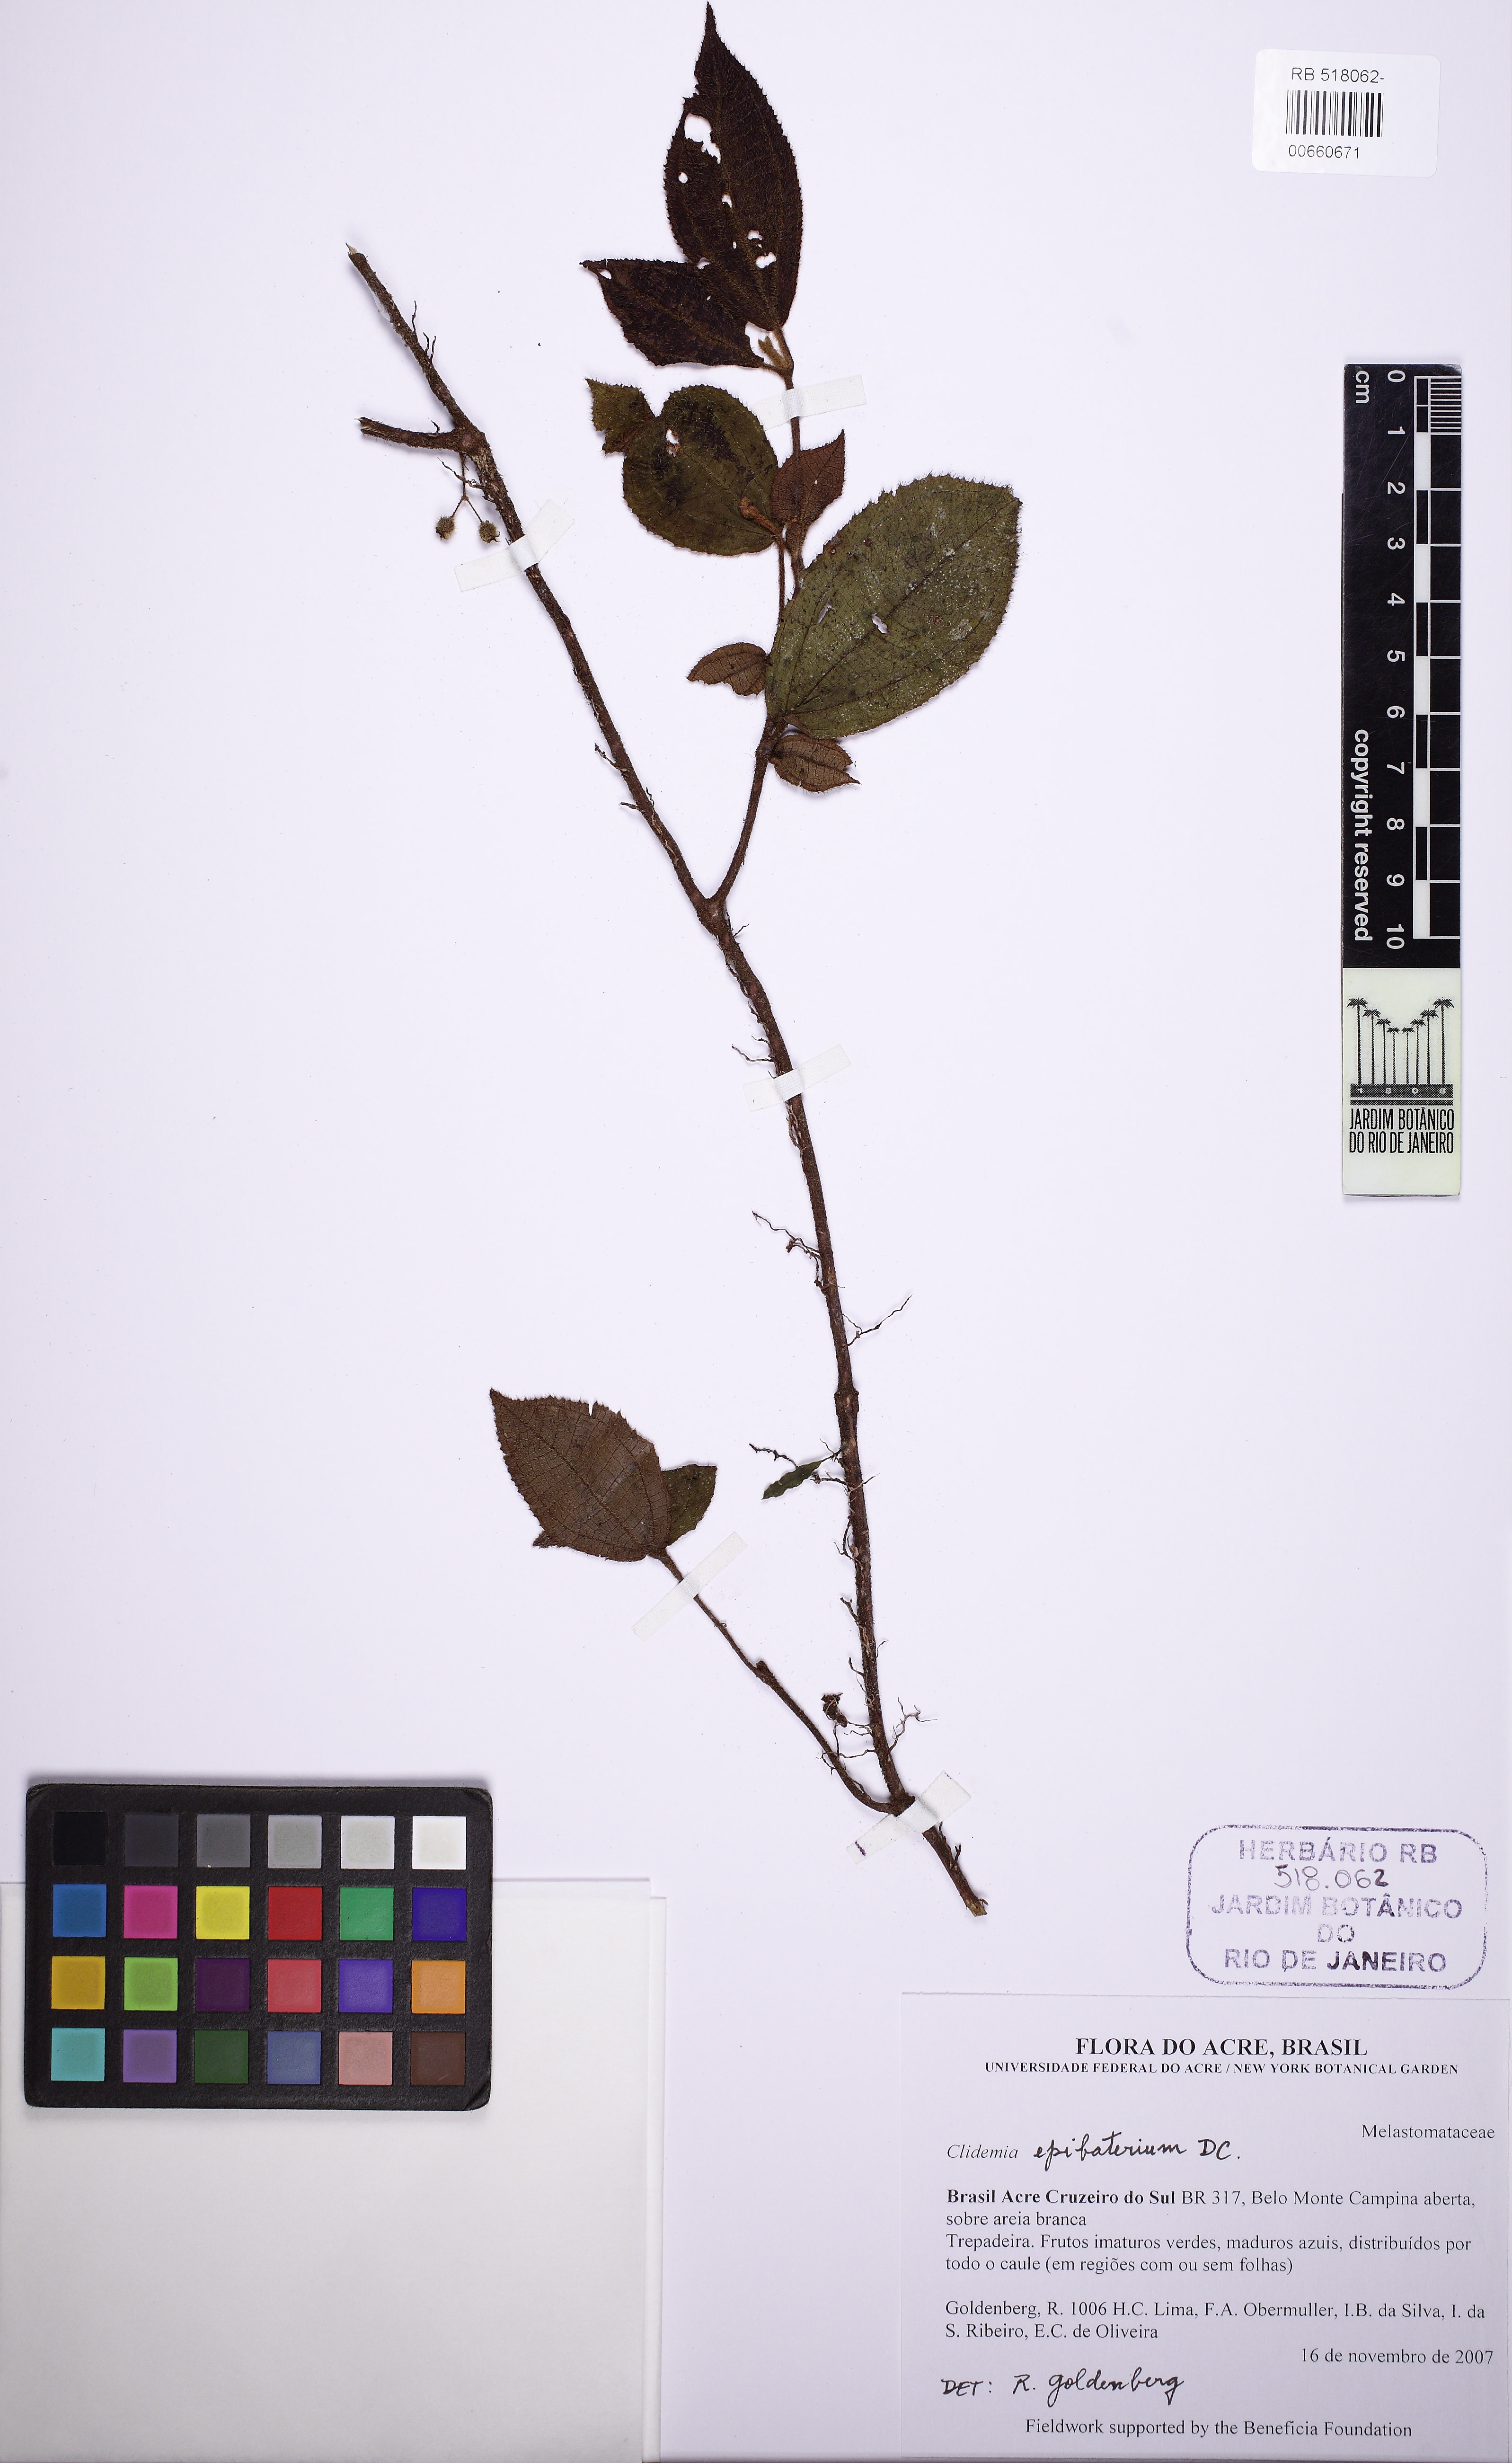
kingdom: Plantae
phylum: Tracheophyta
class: Magnoliopsida
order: Myrtales
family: Melastomataceae
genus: Miconia
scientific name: Miconia epibaterium
